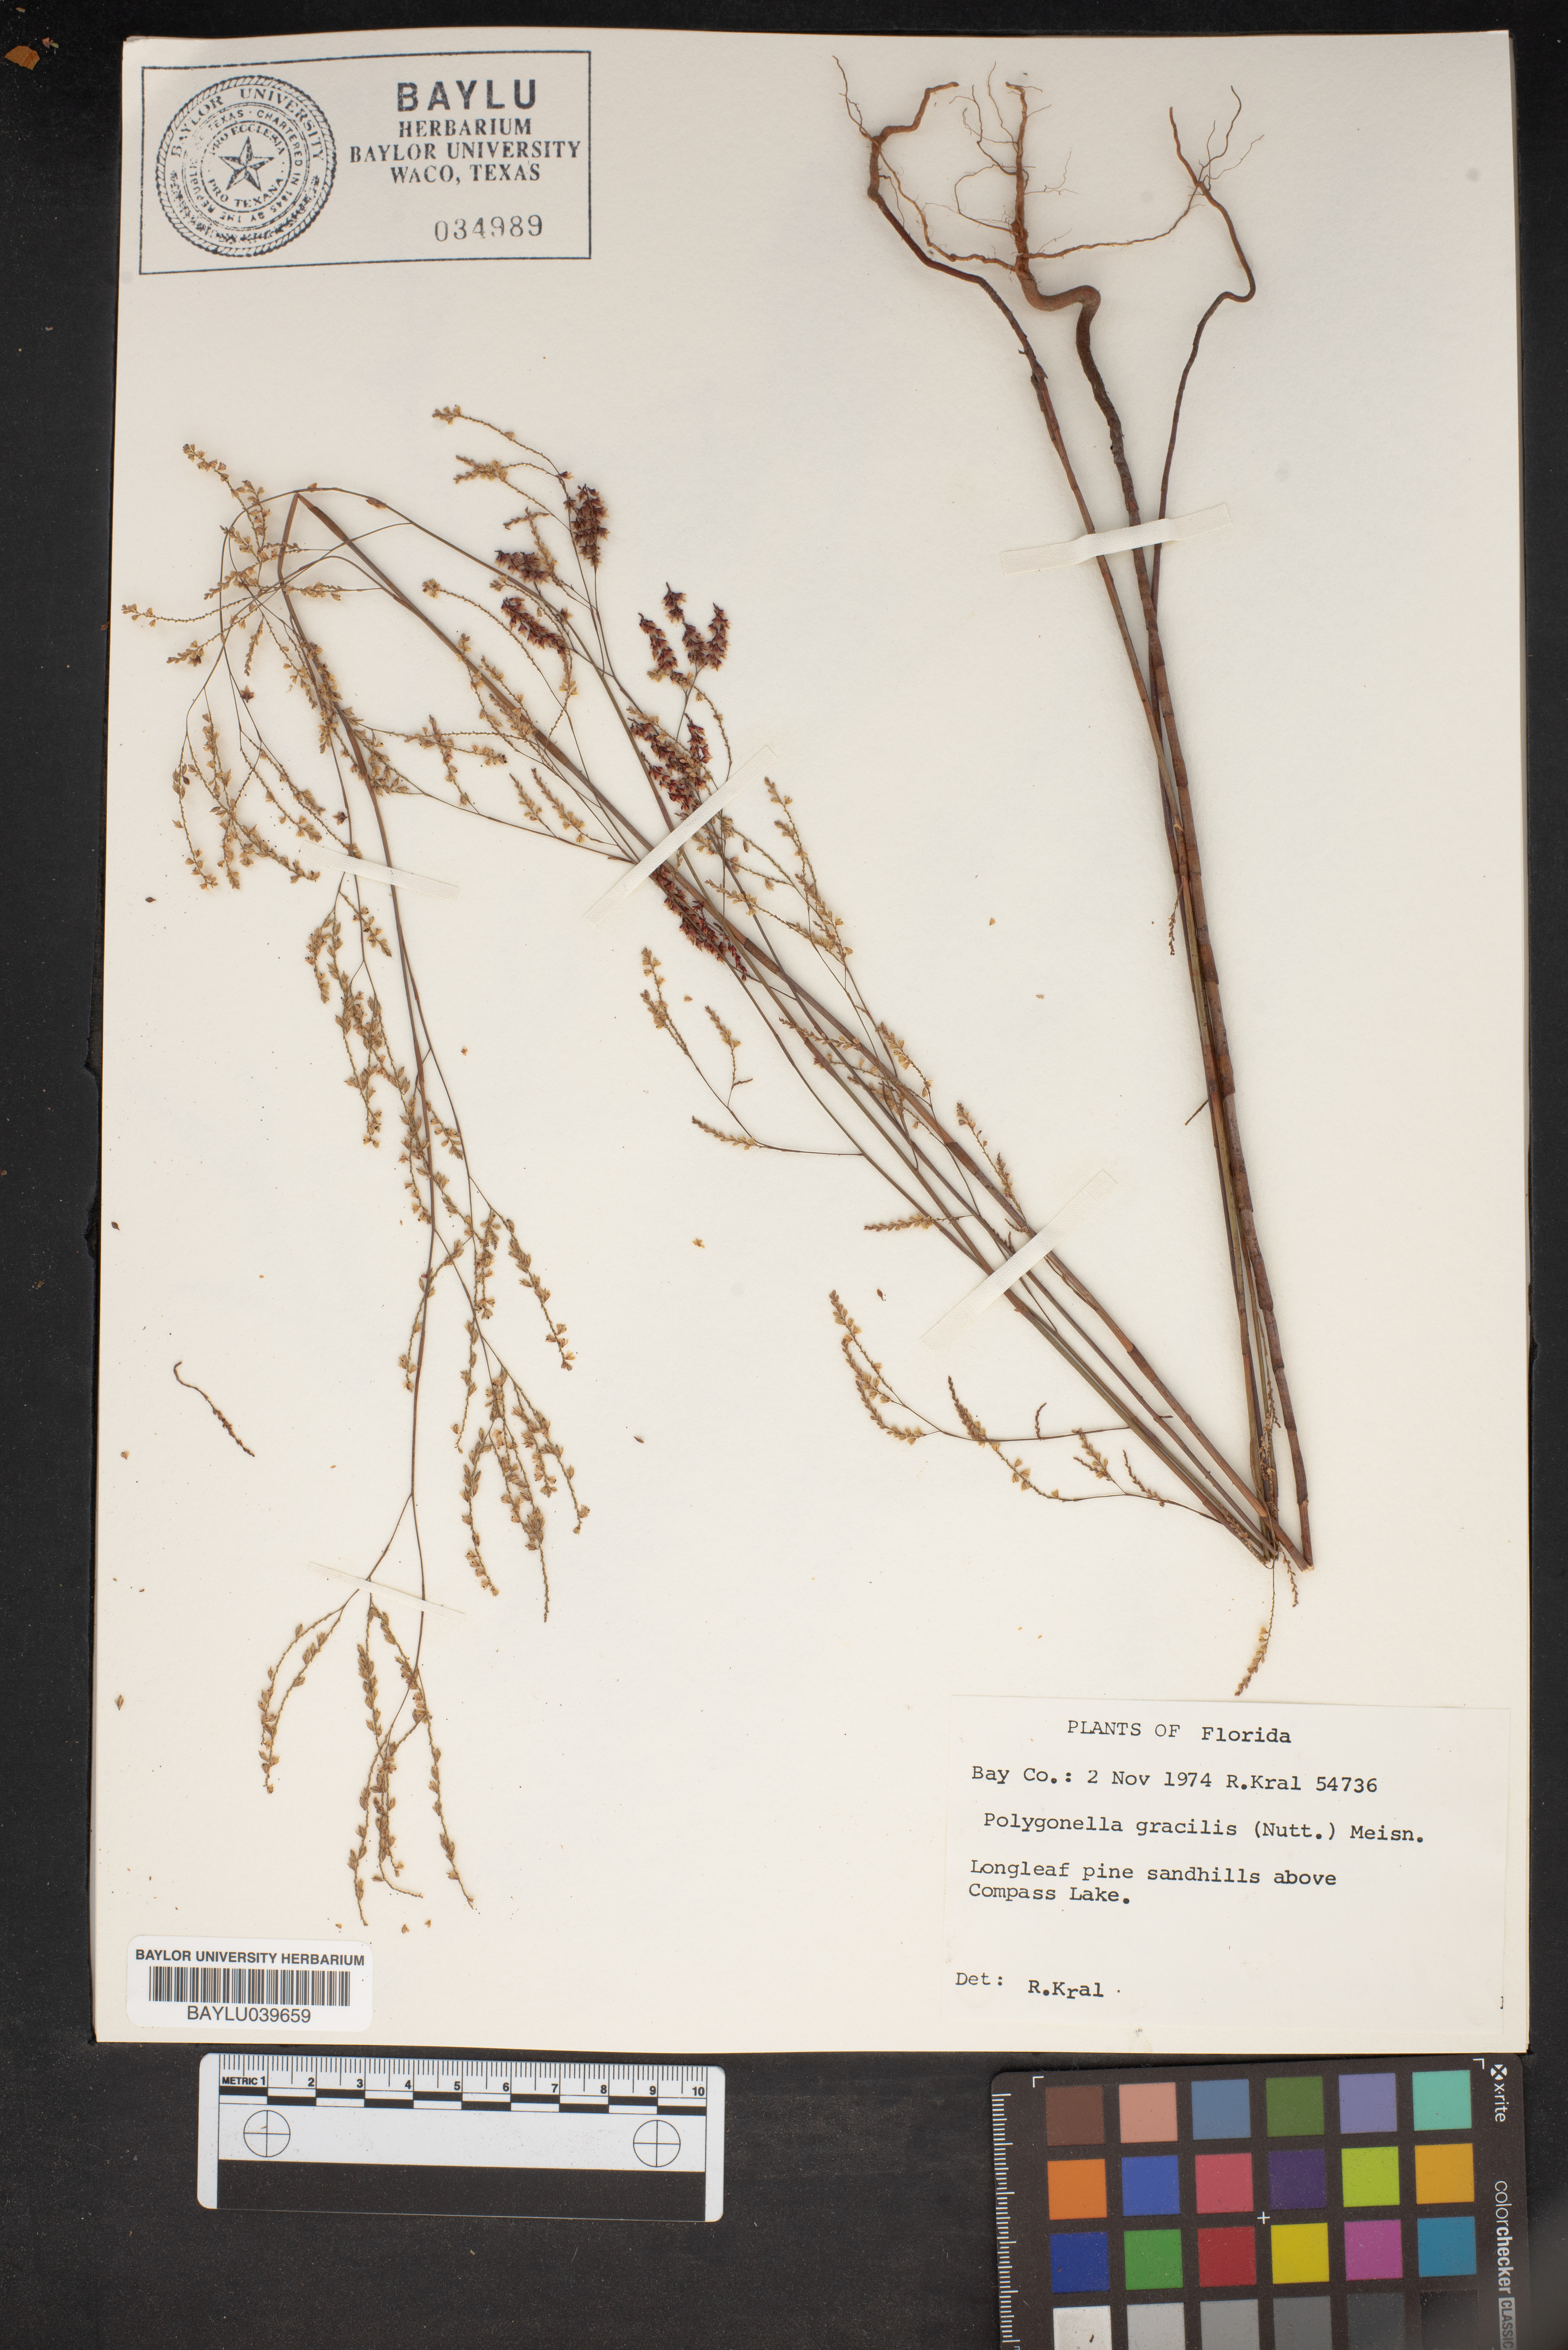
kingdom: Plantae
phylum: Tracheophyta
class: Magnoliopsida
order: Caryophyllales
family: Polygonaceae
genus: Polygonella
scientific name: Polygonella gracilis
